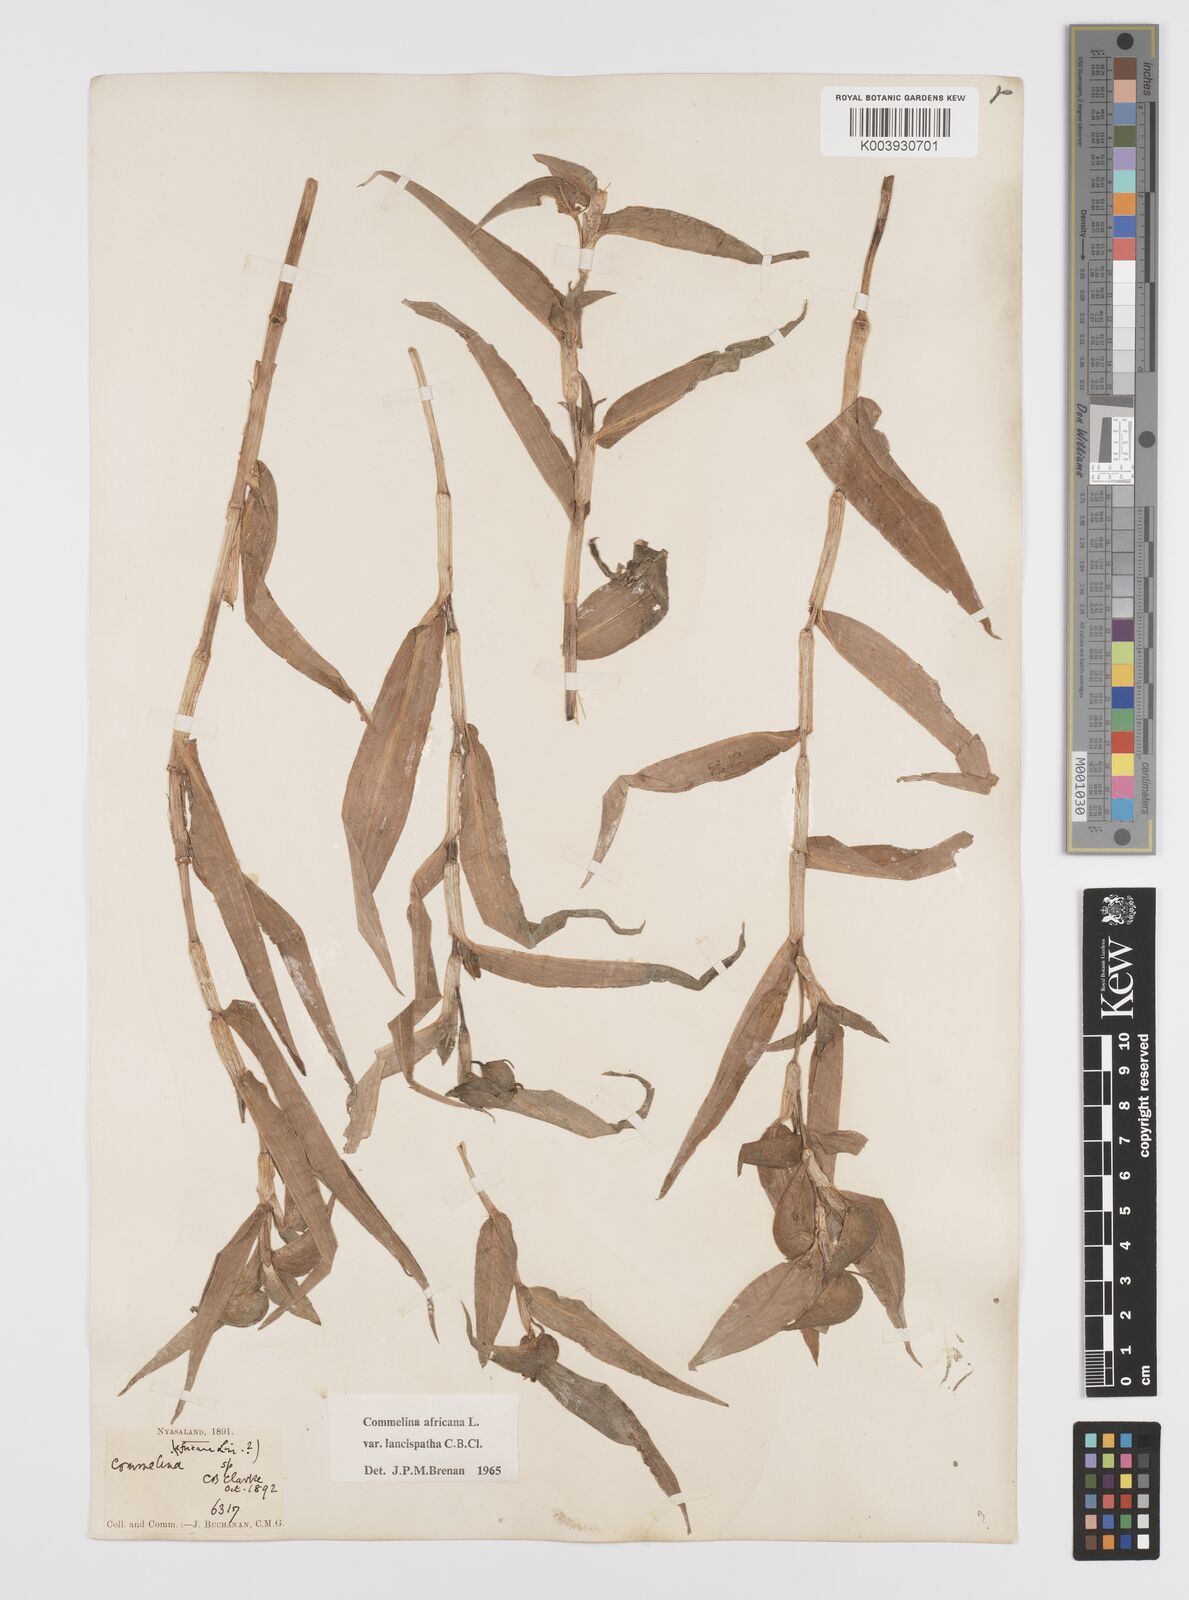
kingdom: Plantae
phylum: Tracheophyta
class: Liliopsida
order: Commelinales
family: Commelinaceae
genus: Commelina
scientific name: Commelina africana
